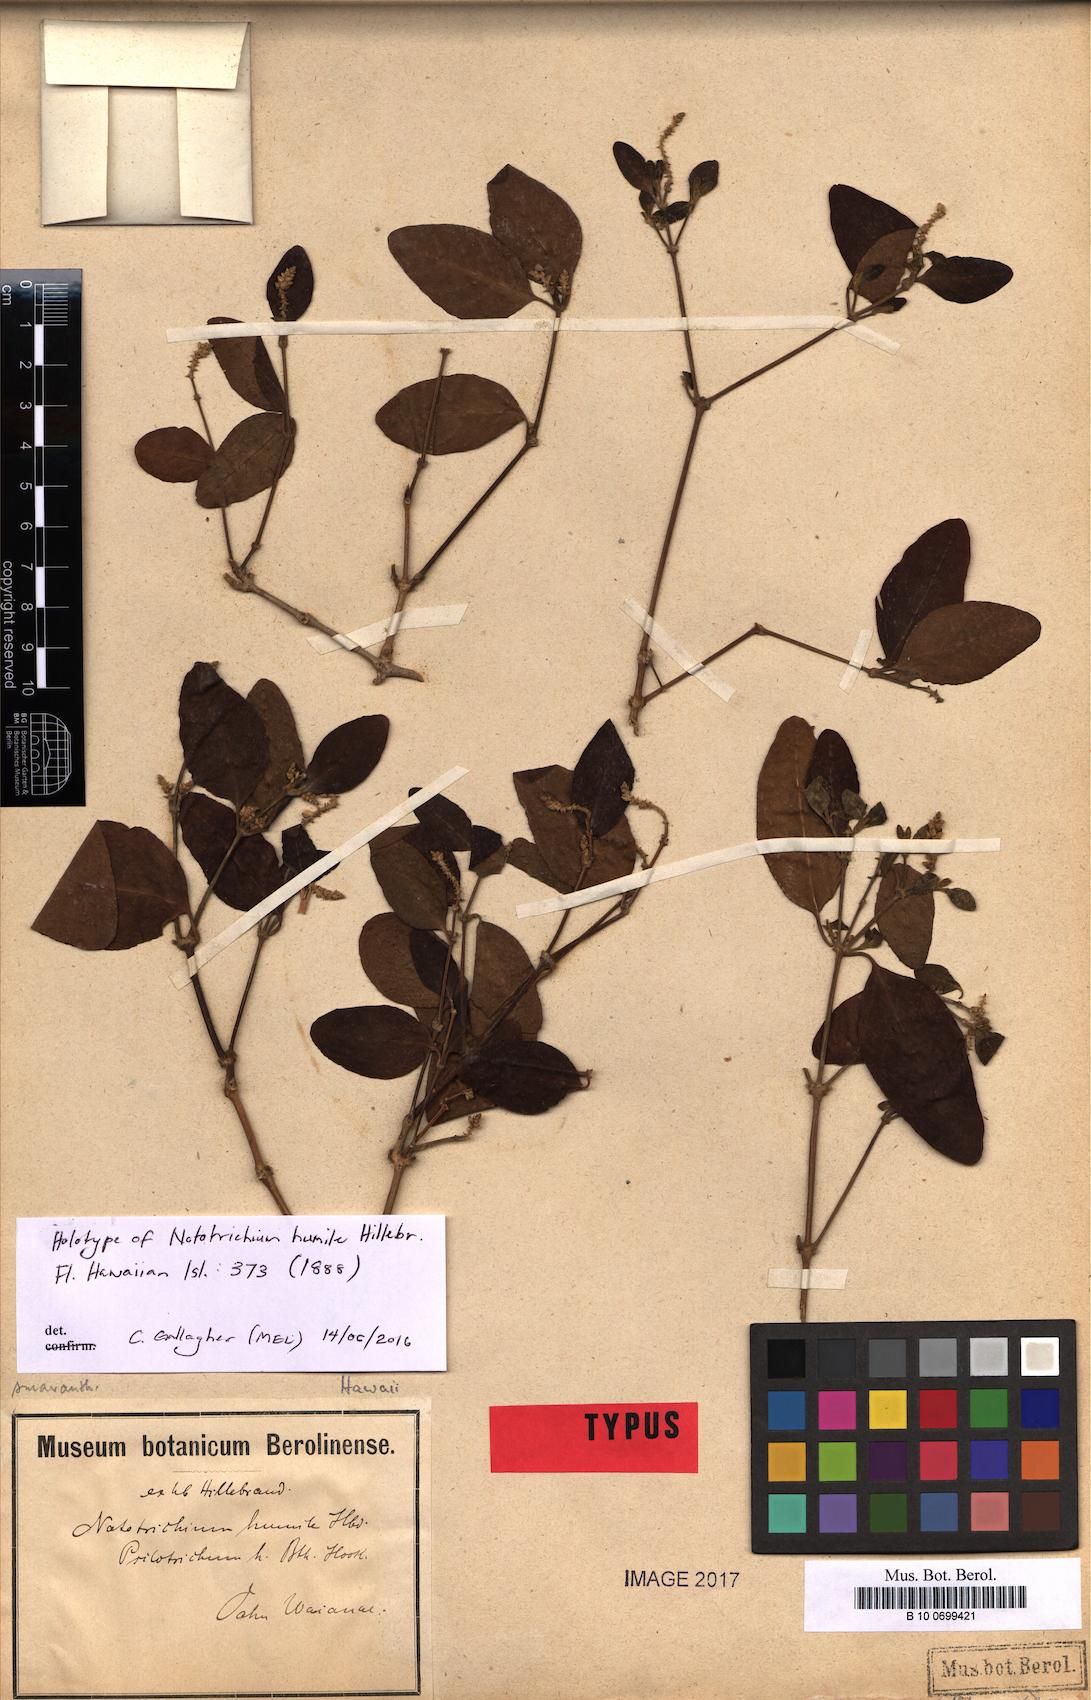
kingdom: Plantae
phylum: Tracheophyta
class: Magnoliopsida
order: Caryophyllales
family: Amaranthaceae
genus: Nototrichium
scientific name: Nototrichium humile
